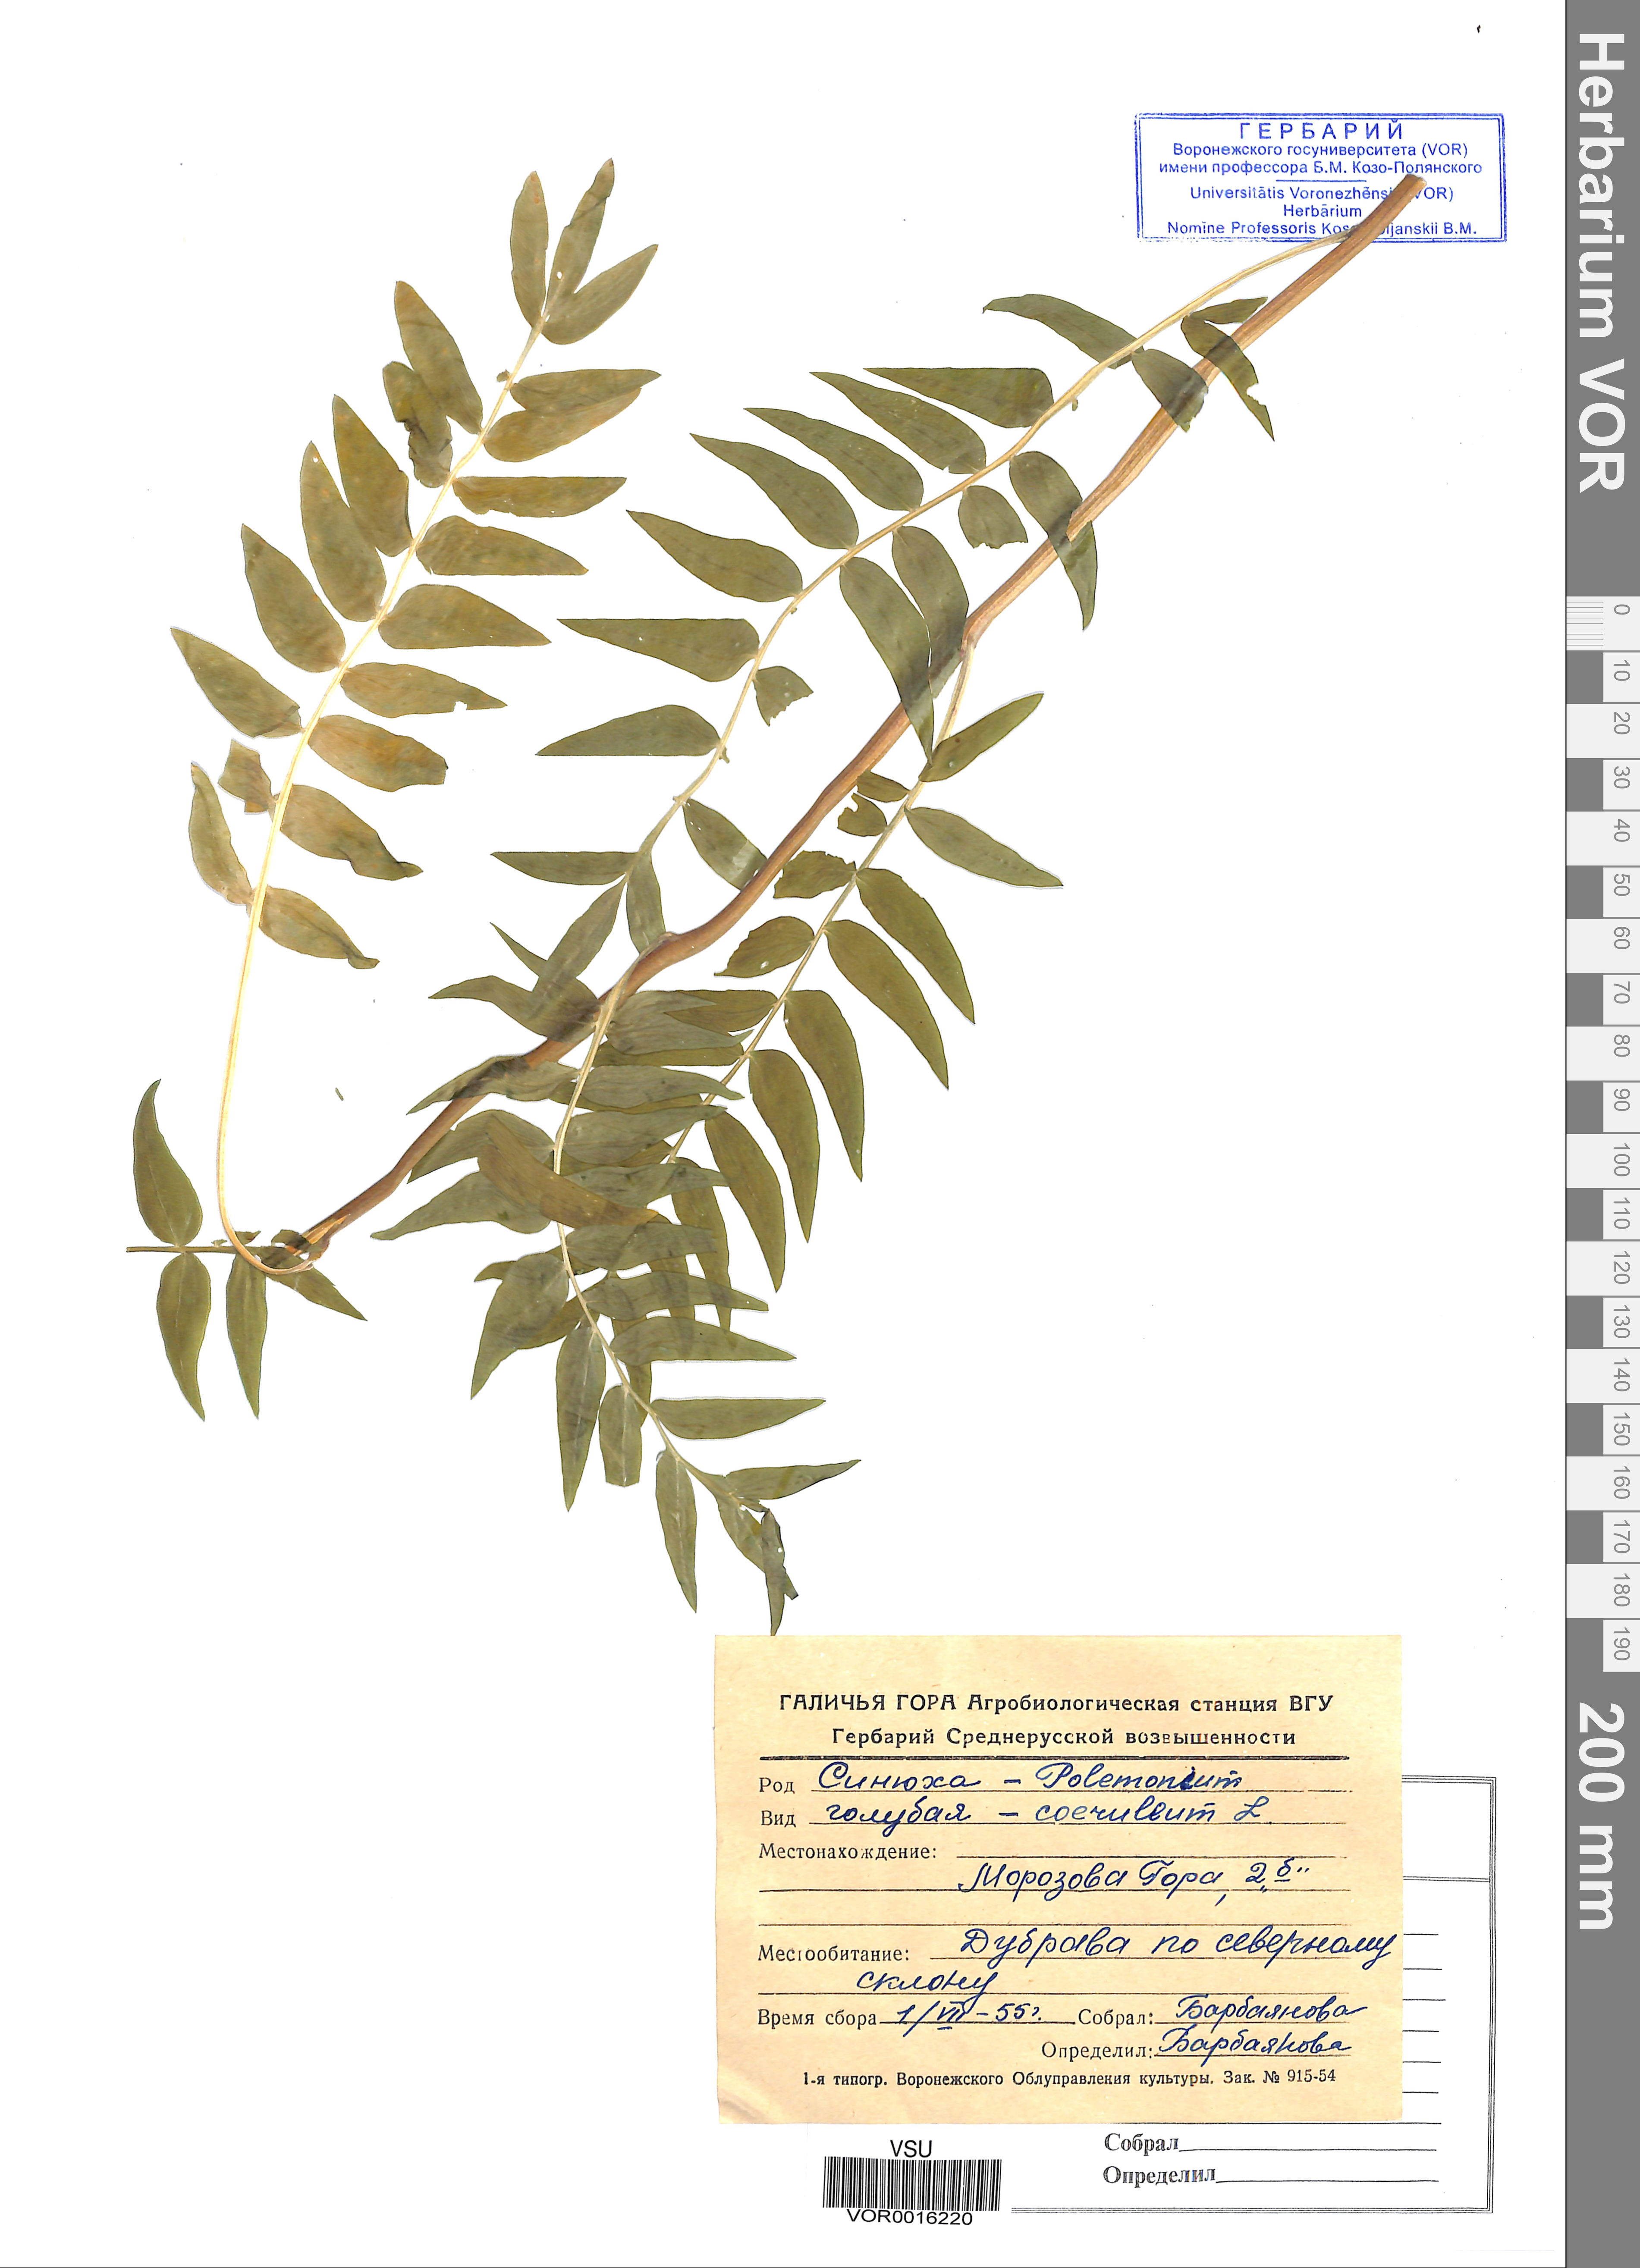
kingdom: Plantae
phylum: Tracheophyta
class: Magnoliopsida
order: Ericales
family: Polemoniaceae
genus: Polemonium
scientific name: Polemonium caeruleum
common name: Jacob's-ladder
